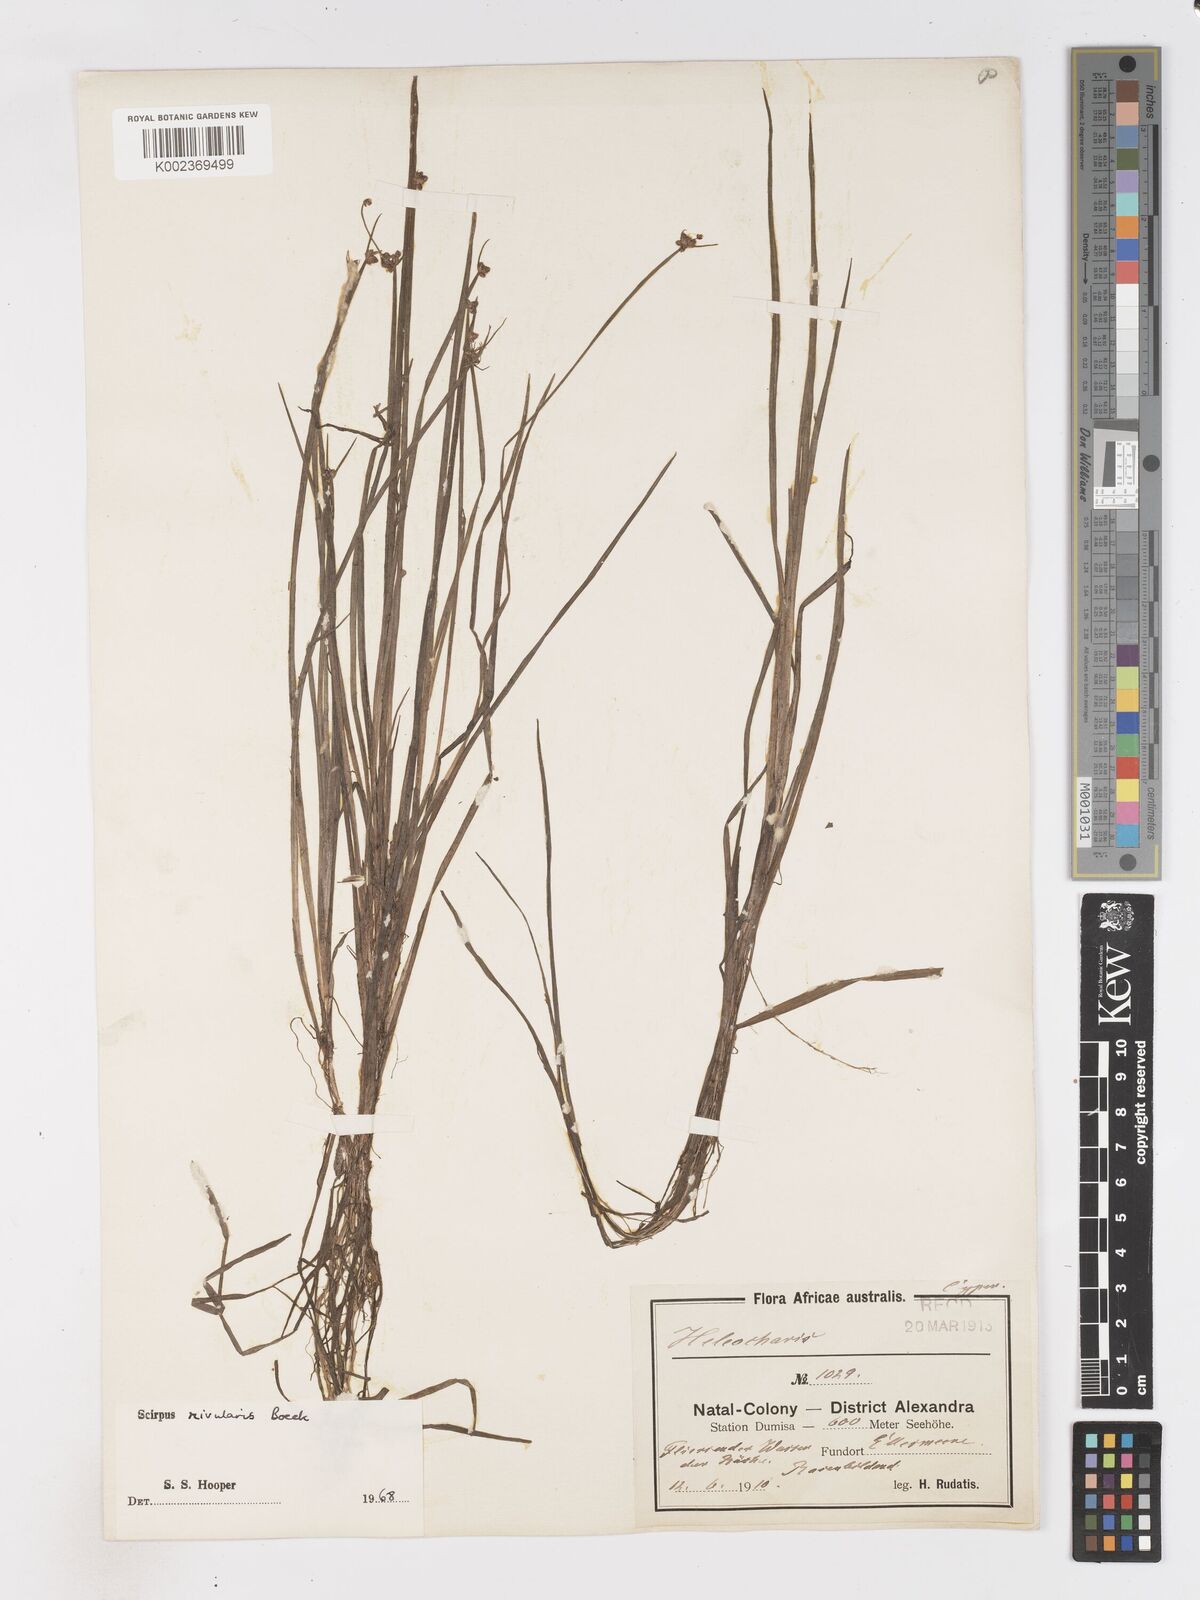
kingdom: Plantae
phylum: Tracheophyta
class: Liliopsida
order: Poales
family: Cyperaceae
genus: Isolepis
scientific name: Isolepis natans
